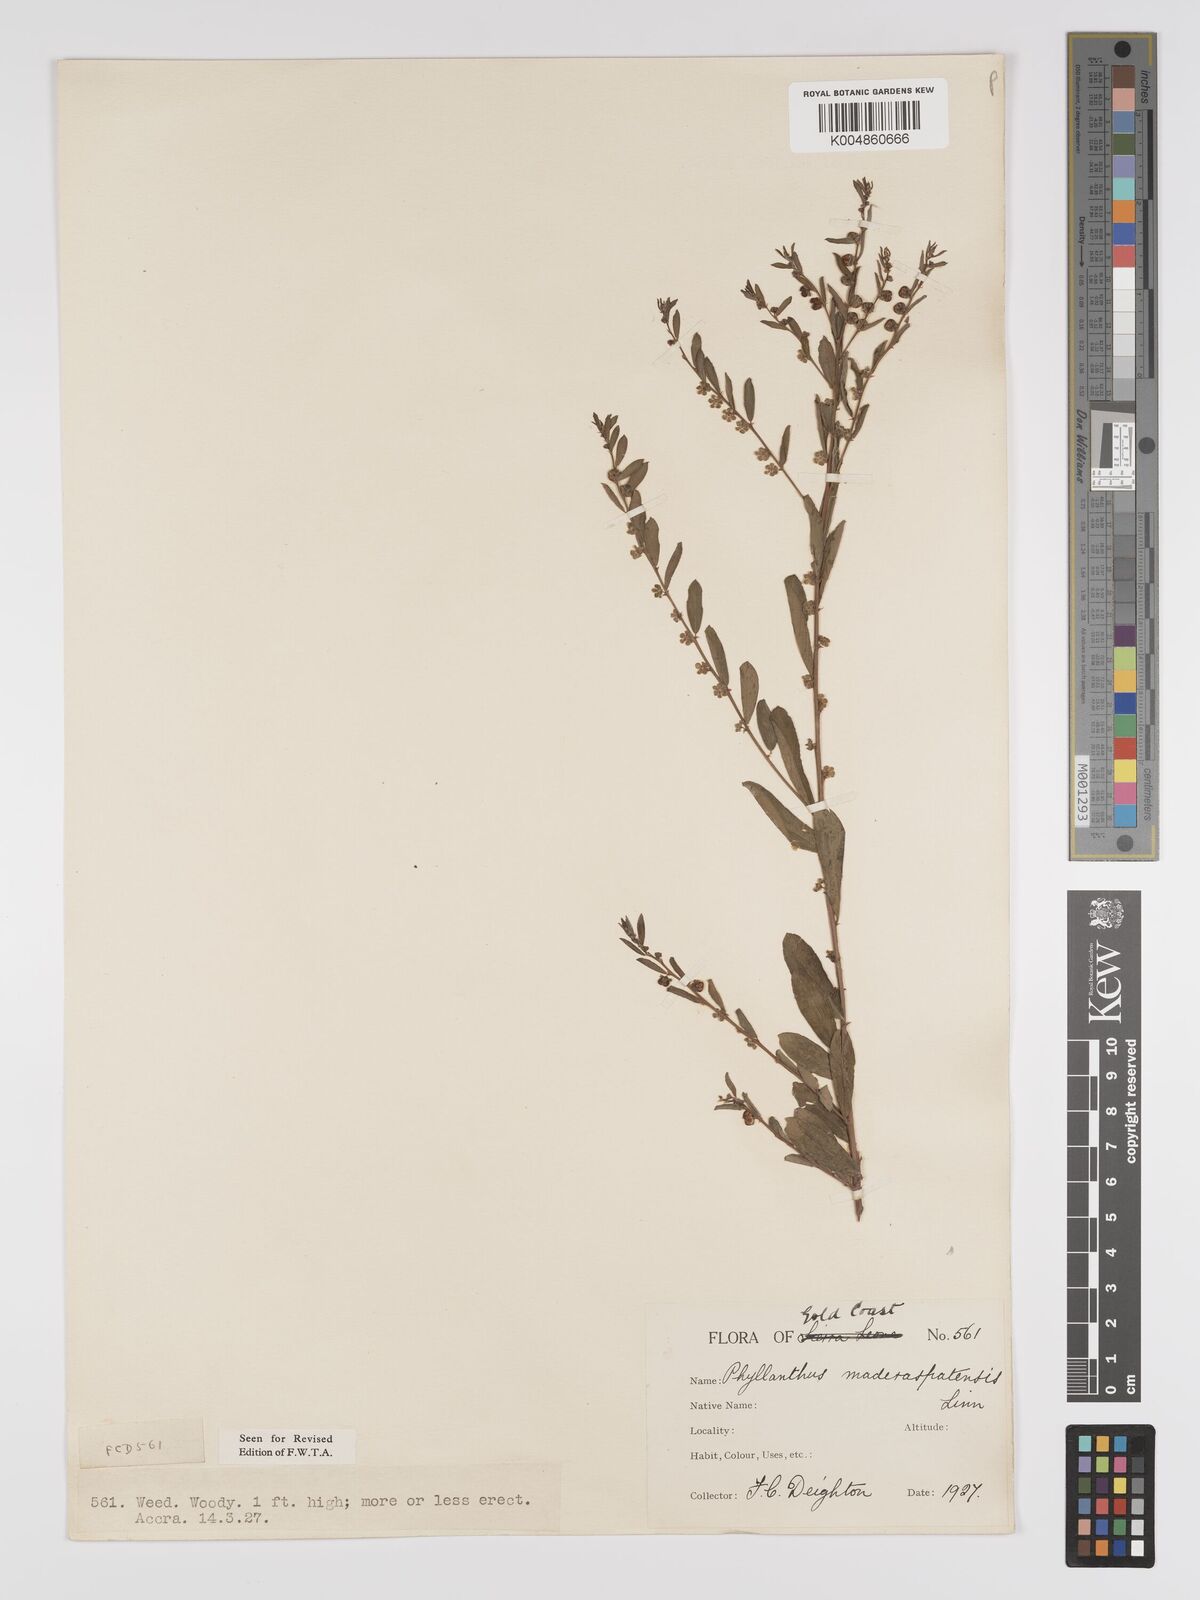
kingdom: Plantae
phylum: Tracheophyta
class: Magnoliopsida
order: Malpighiales
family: Phyllanthaceae
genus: Phyllanthus
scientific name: Phyllanthus
